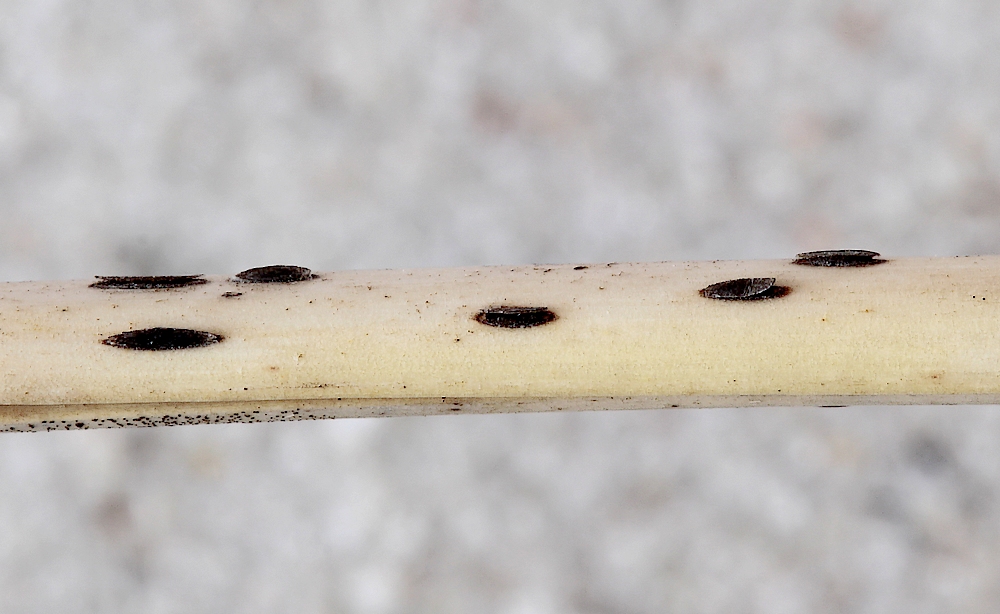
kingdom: Fungi
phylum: Ascomycota
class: Leotiomycetes
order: Helotiales
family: Dermateaceae
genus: Hysterostegiella
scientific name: Hysterostegiella valvata
